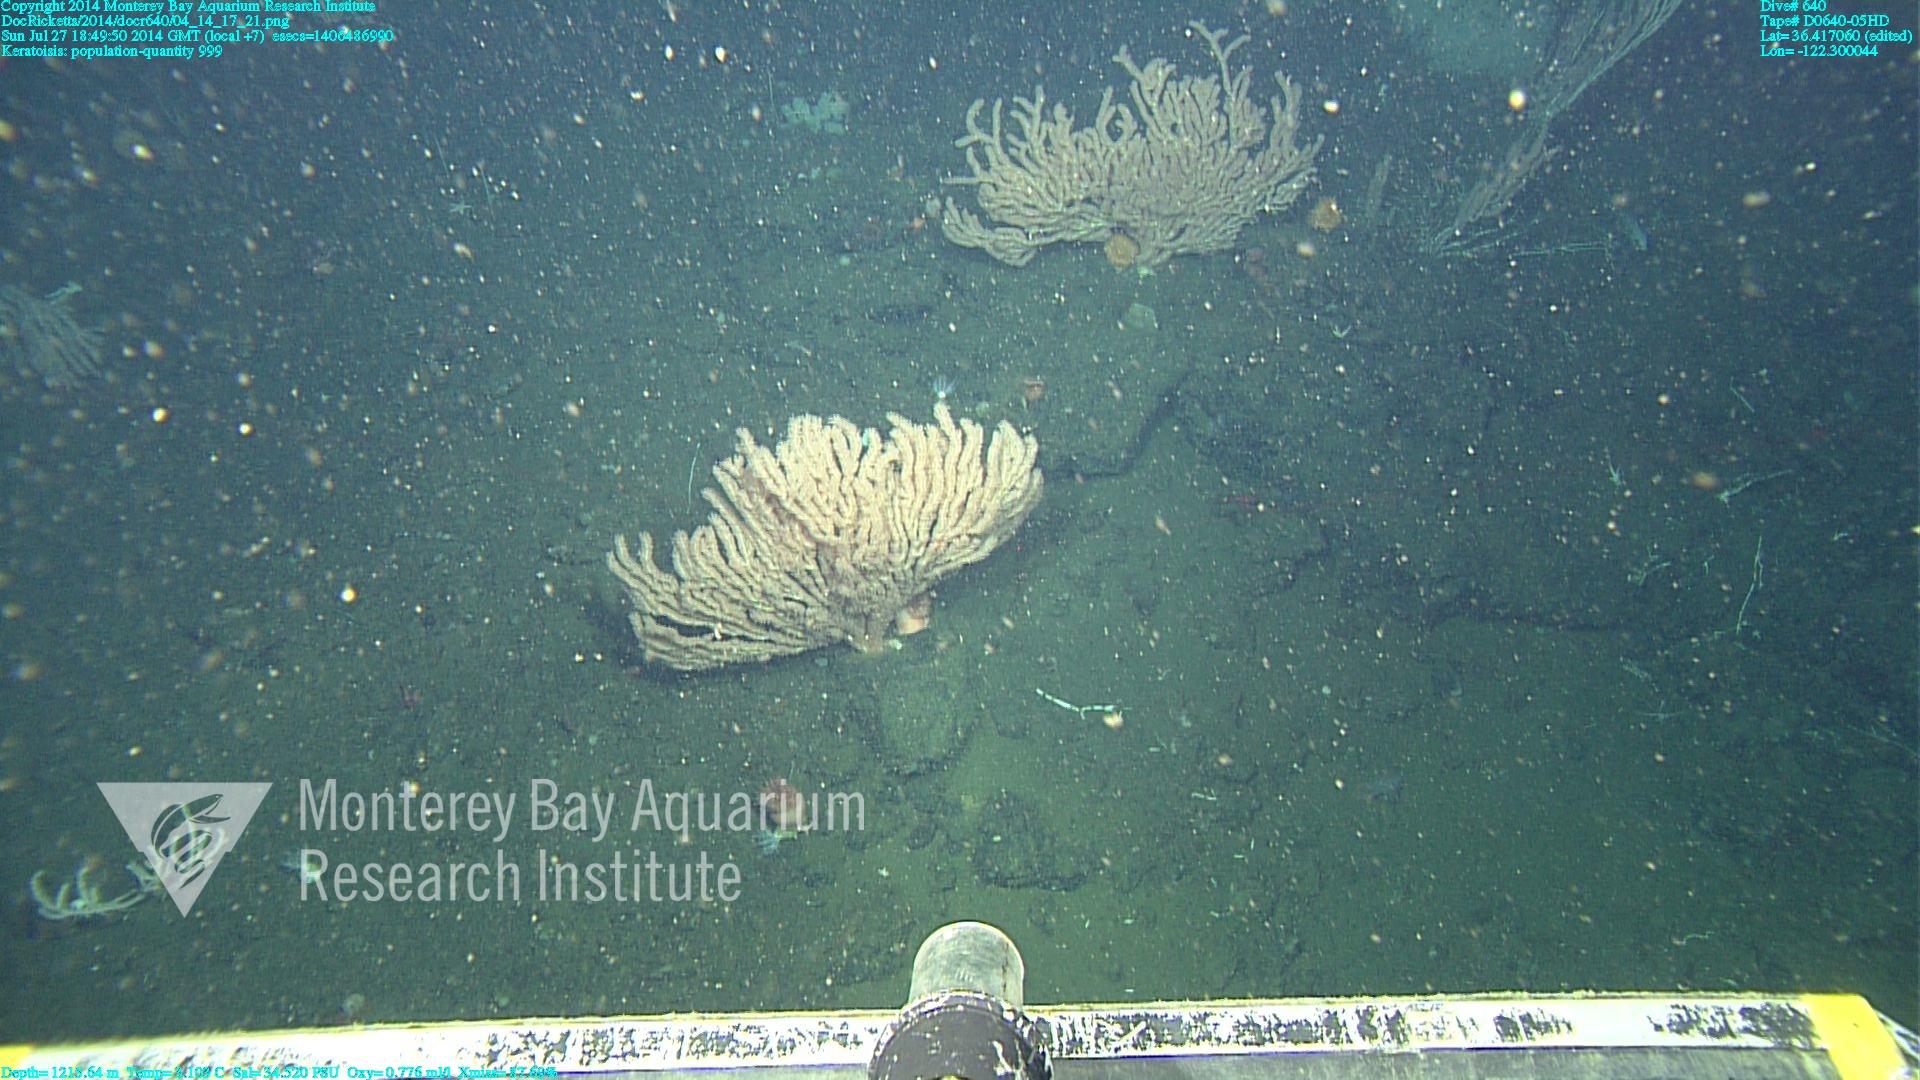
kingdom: Animalia
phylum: Cnidaria
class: Anthozoa
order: Scleralcyonacea
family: Keratoisididae
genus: Keratoisis
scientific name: Keratoisis
